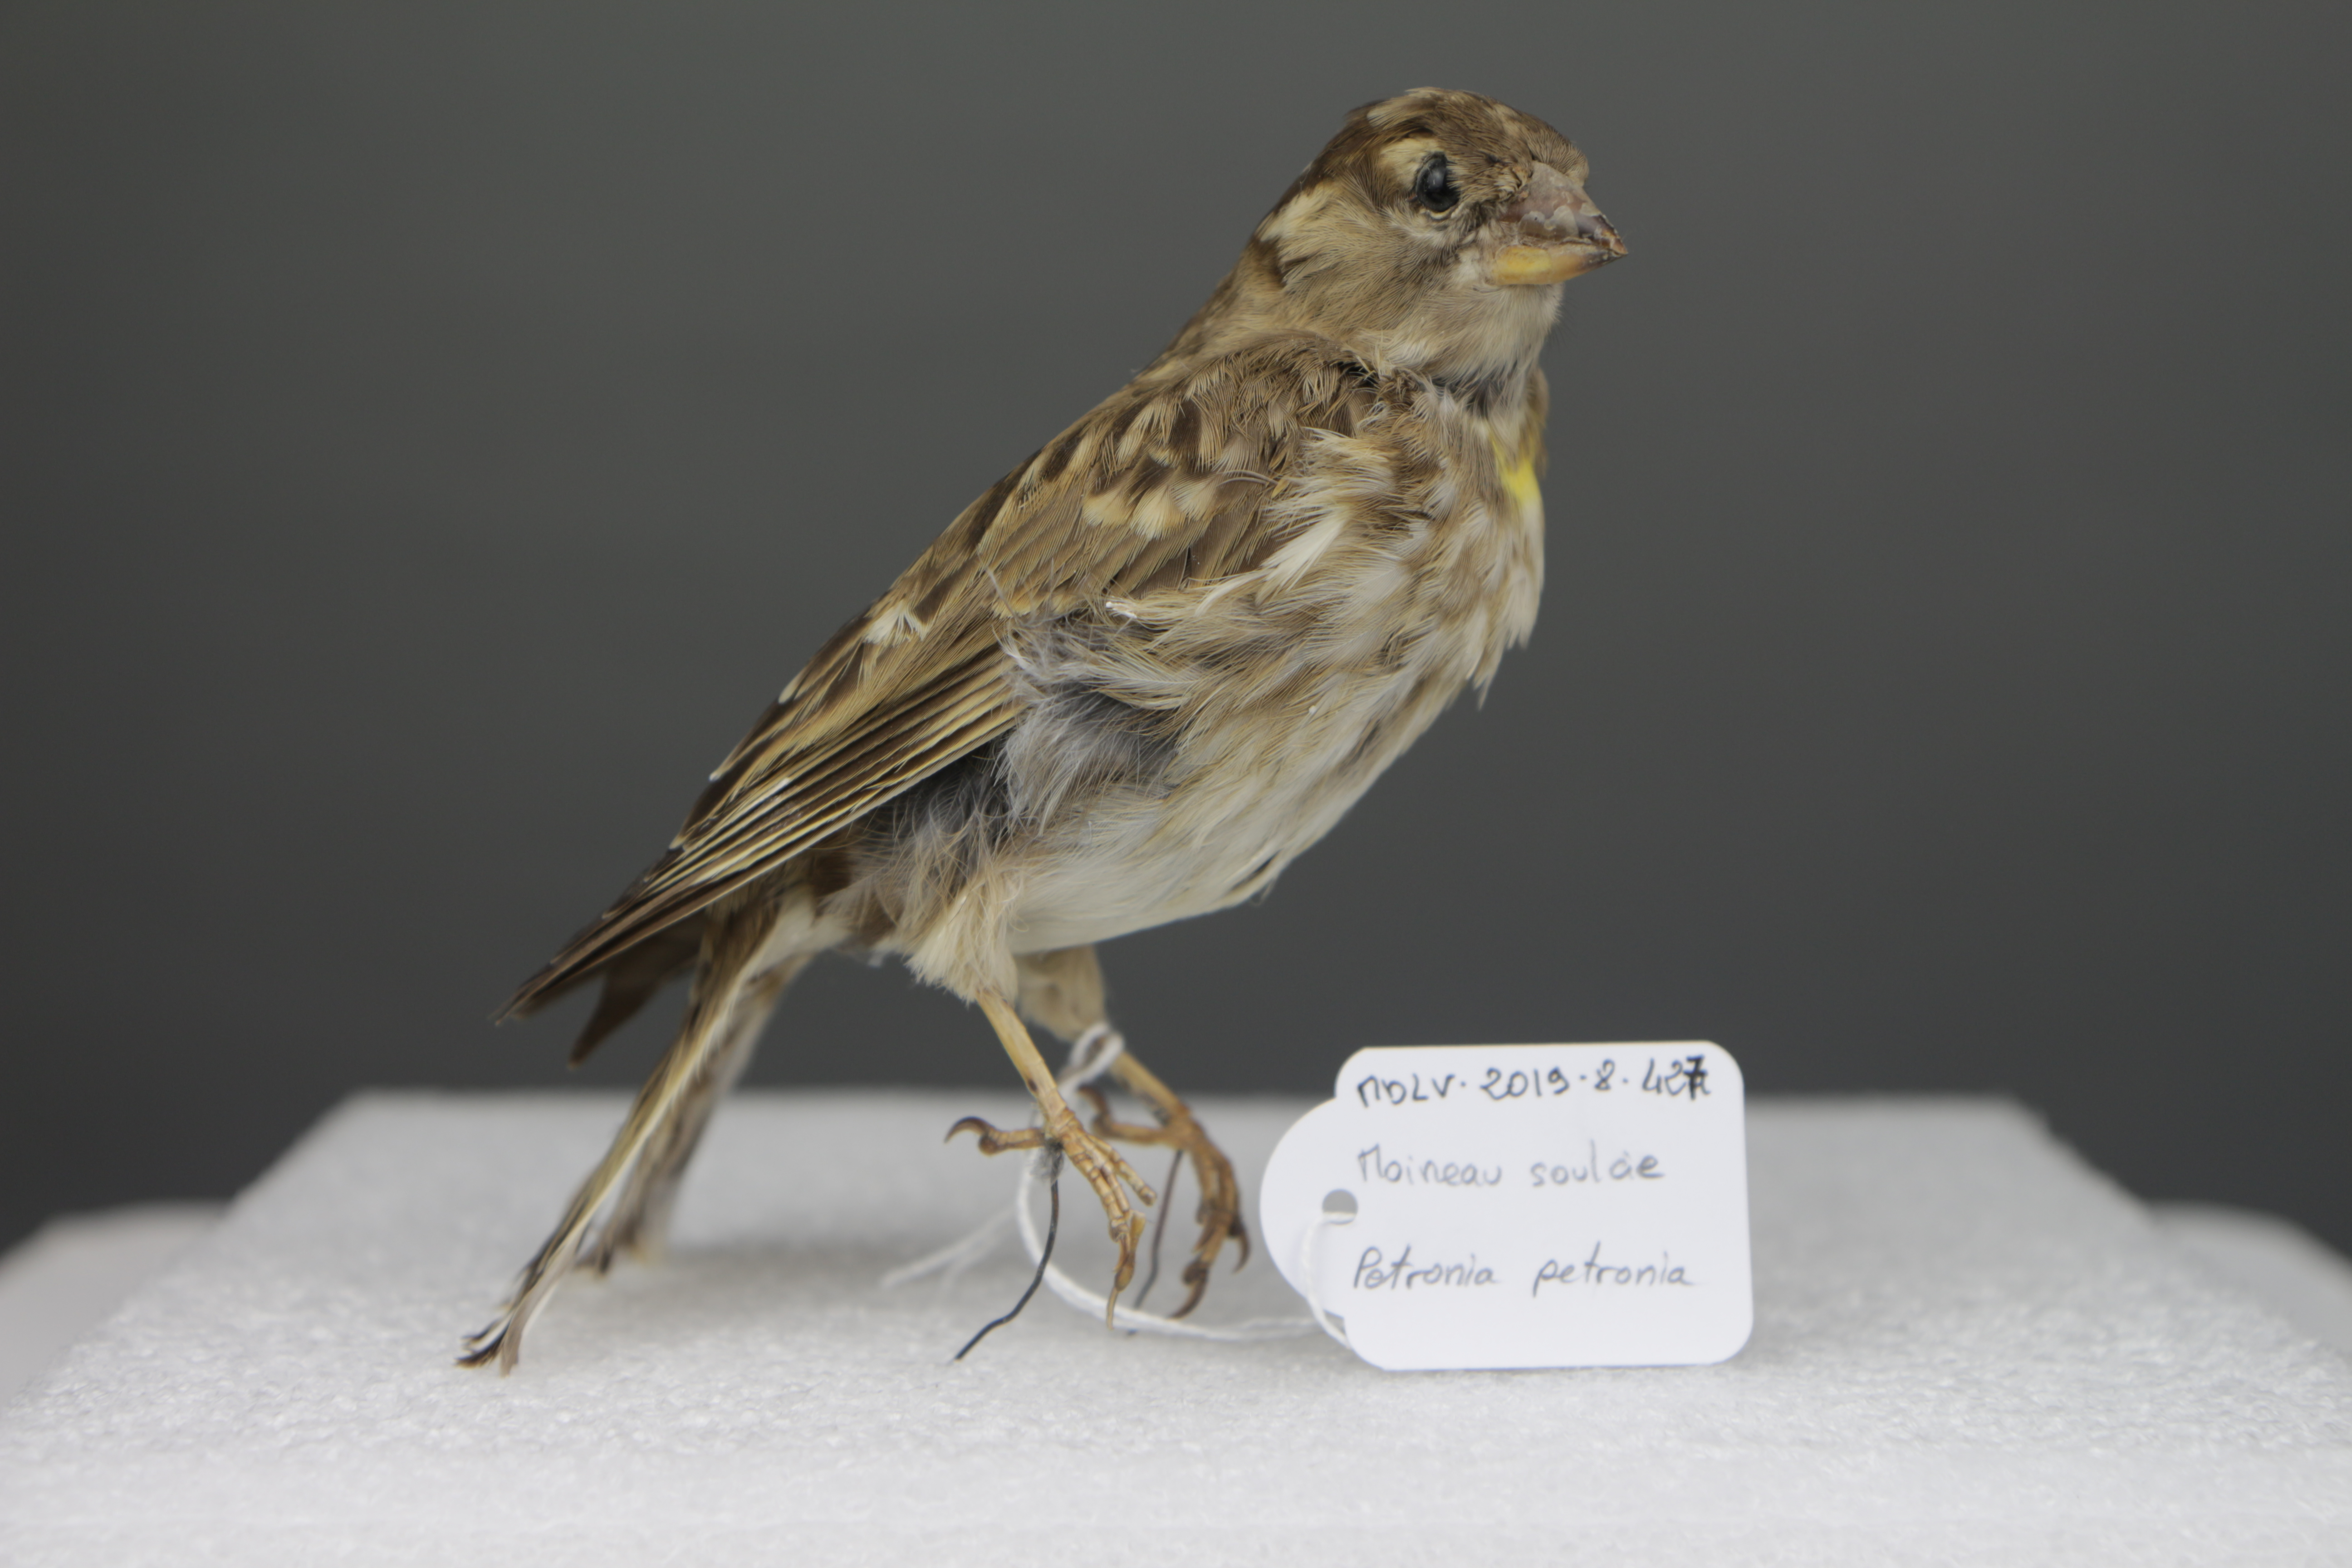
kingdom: Animalia
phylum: Chordata
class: Aves
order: Passeriformes
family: Passeridae
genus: Petronia
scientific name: Petronia petronia
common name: Rock sparrow
